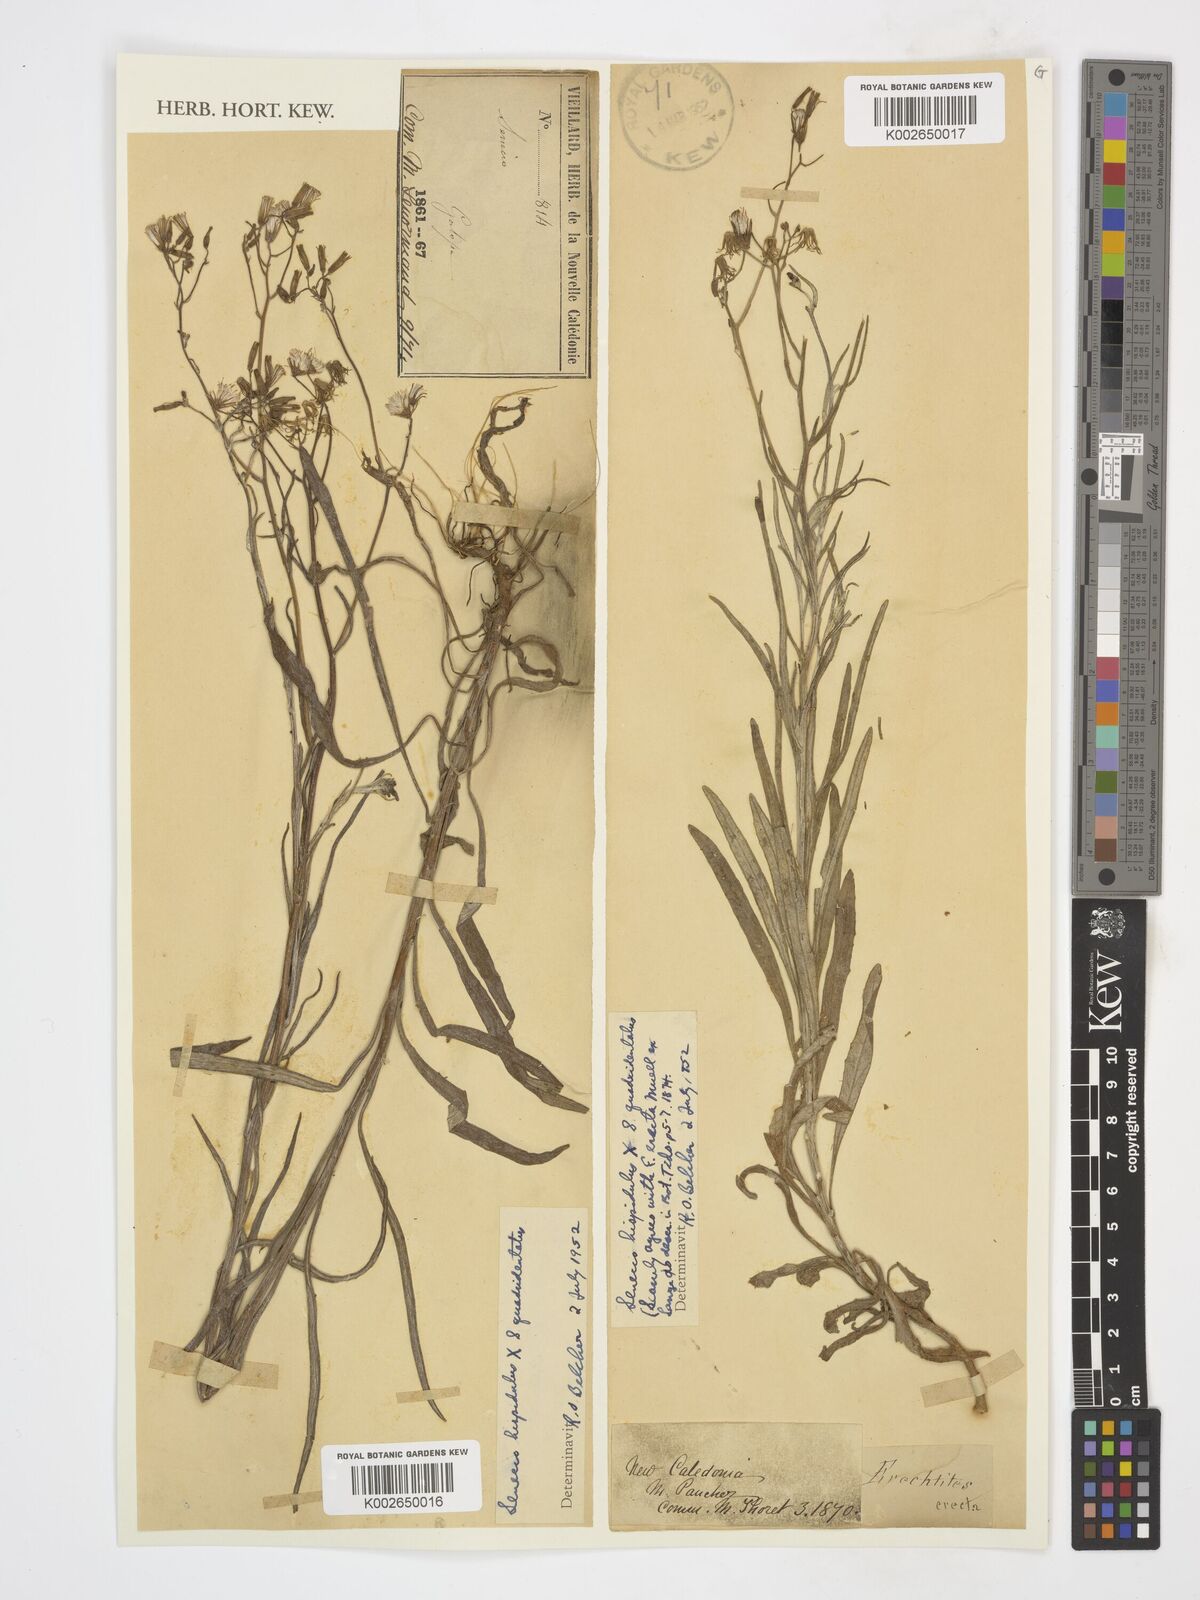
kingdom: Plantae
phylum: Tracheophyta
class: Magnoliopsida
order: Asterales
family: Asteraceae
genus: Senecio
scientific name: Senecio hispidulus
